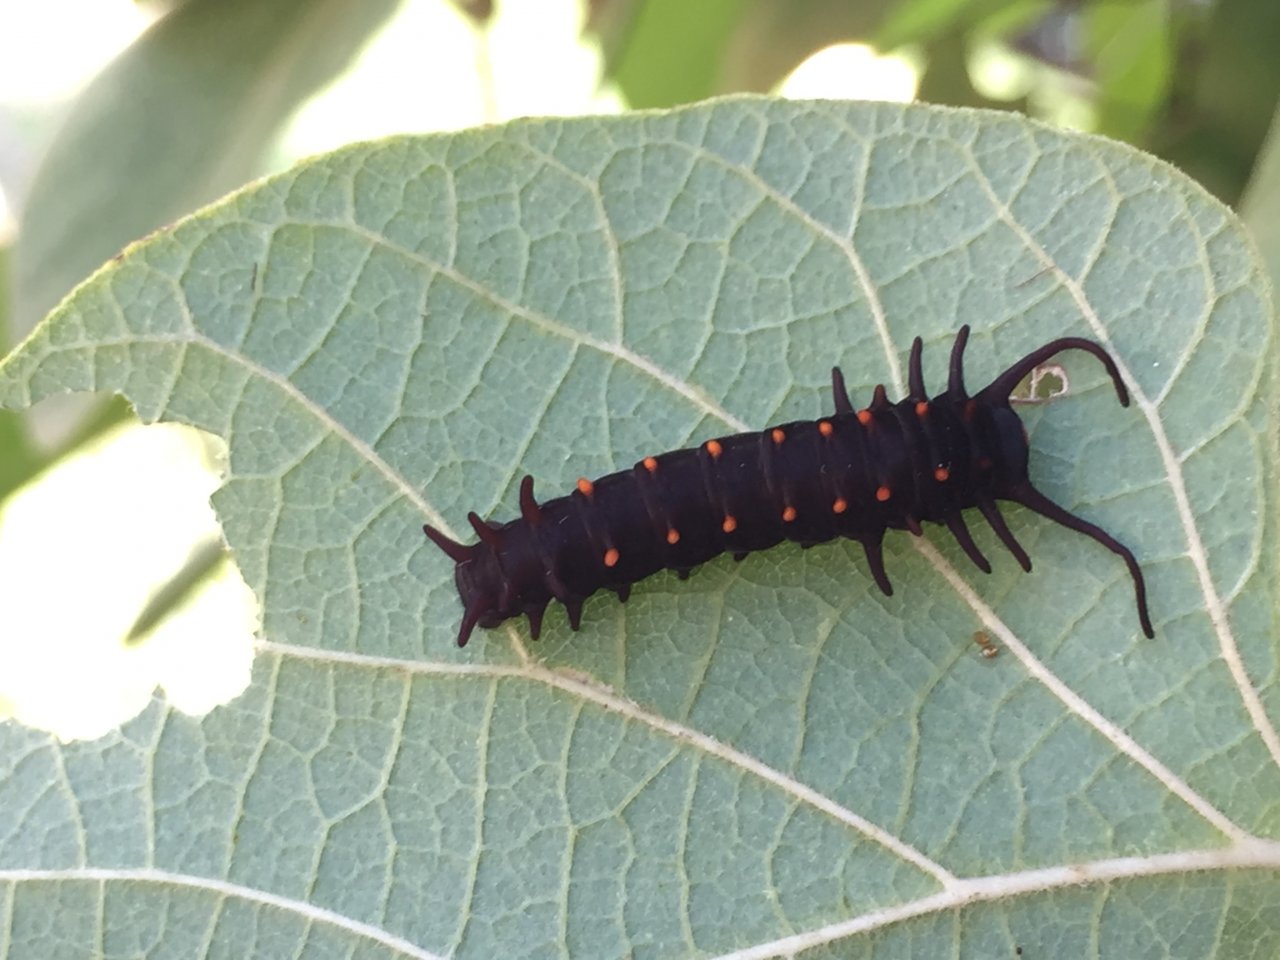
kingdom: Animalia
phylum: Arthropoda
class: Insecta
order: Lepidoptera
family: Papilionidae
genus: Battus
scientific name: Battus philenor
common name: Pipevine Swallowtail
